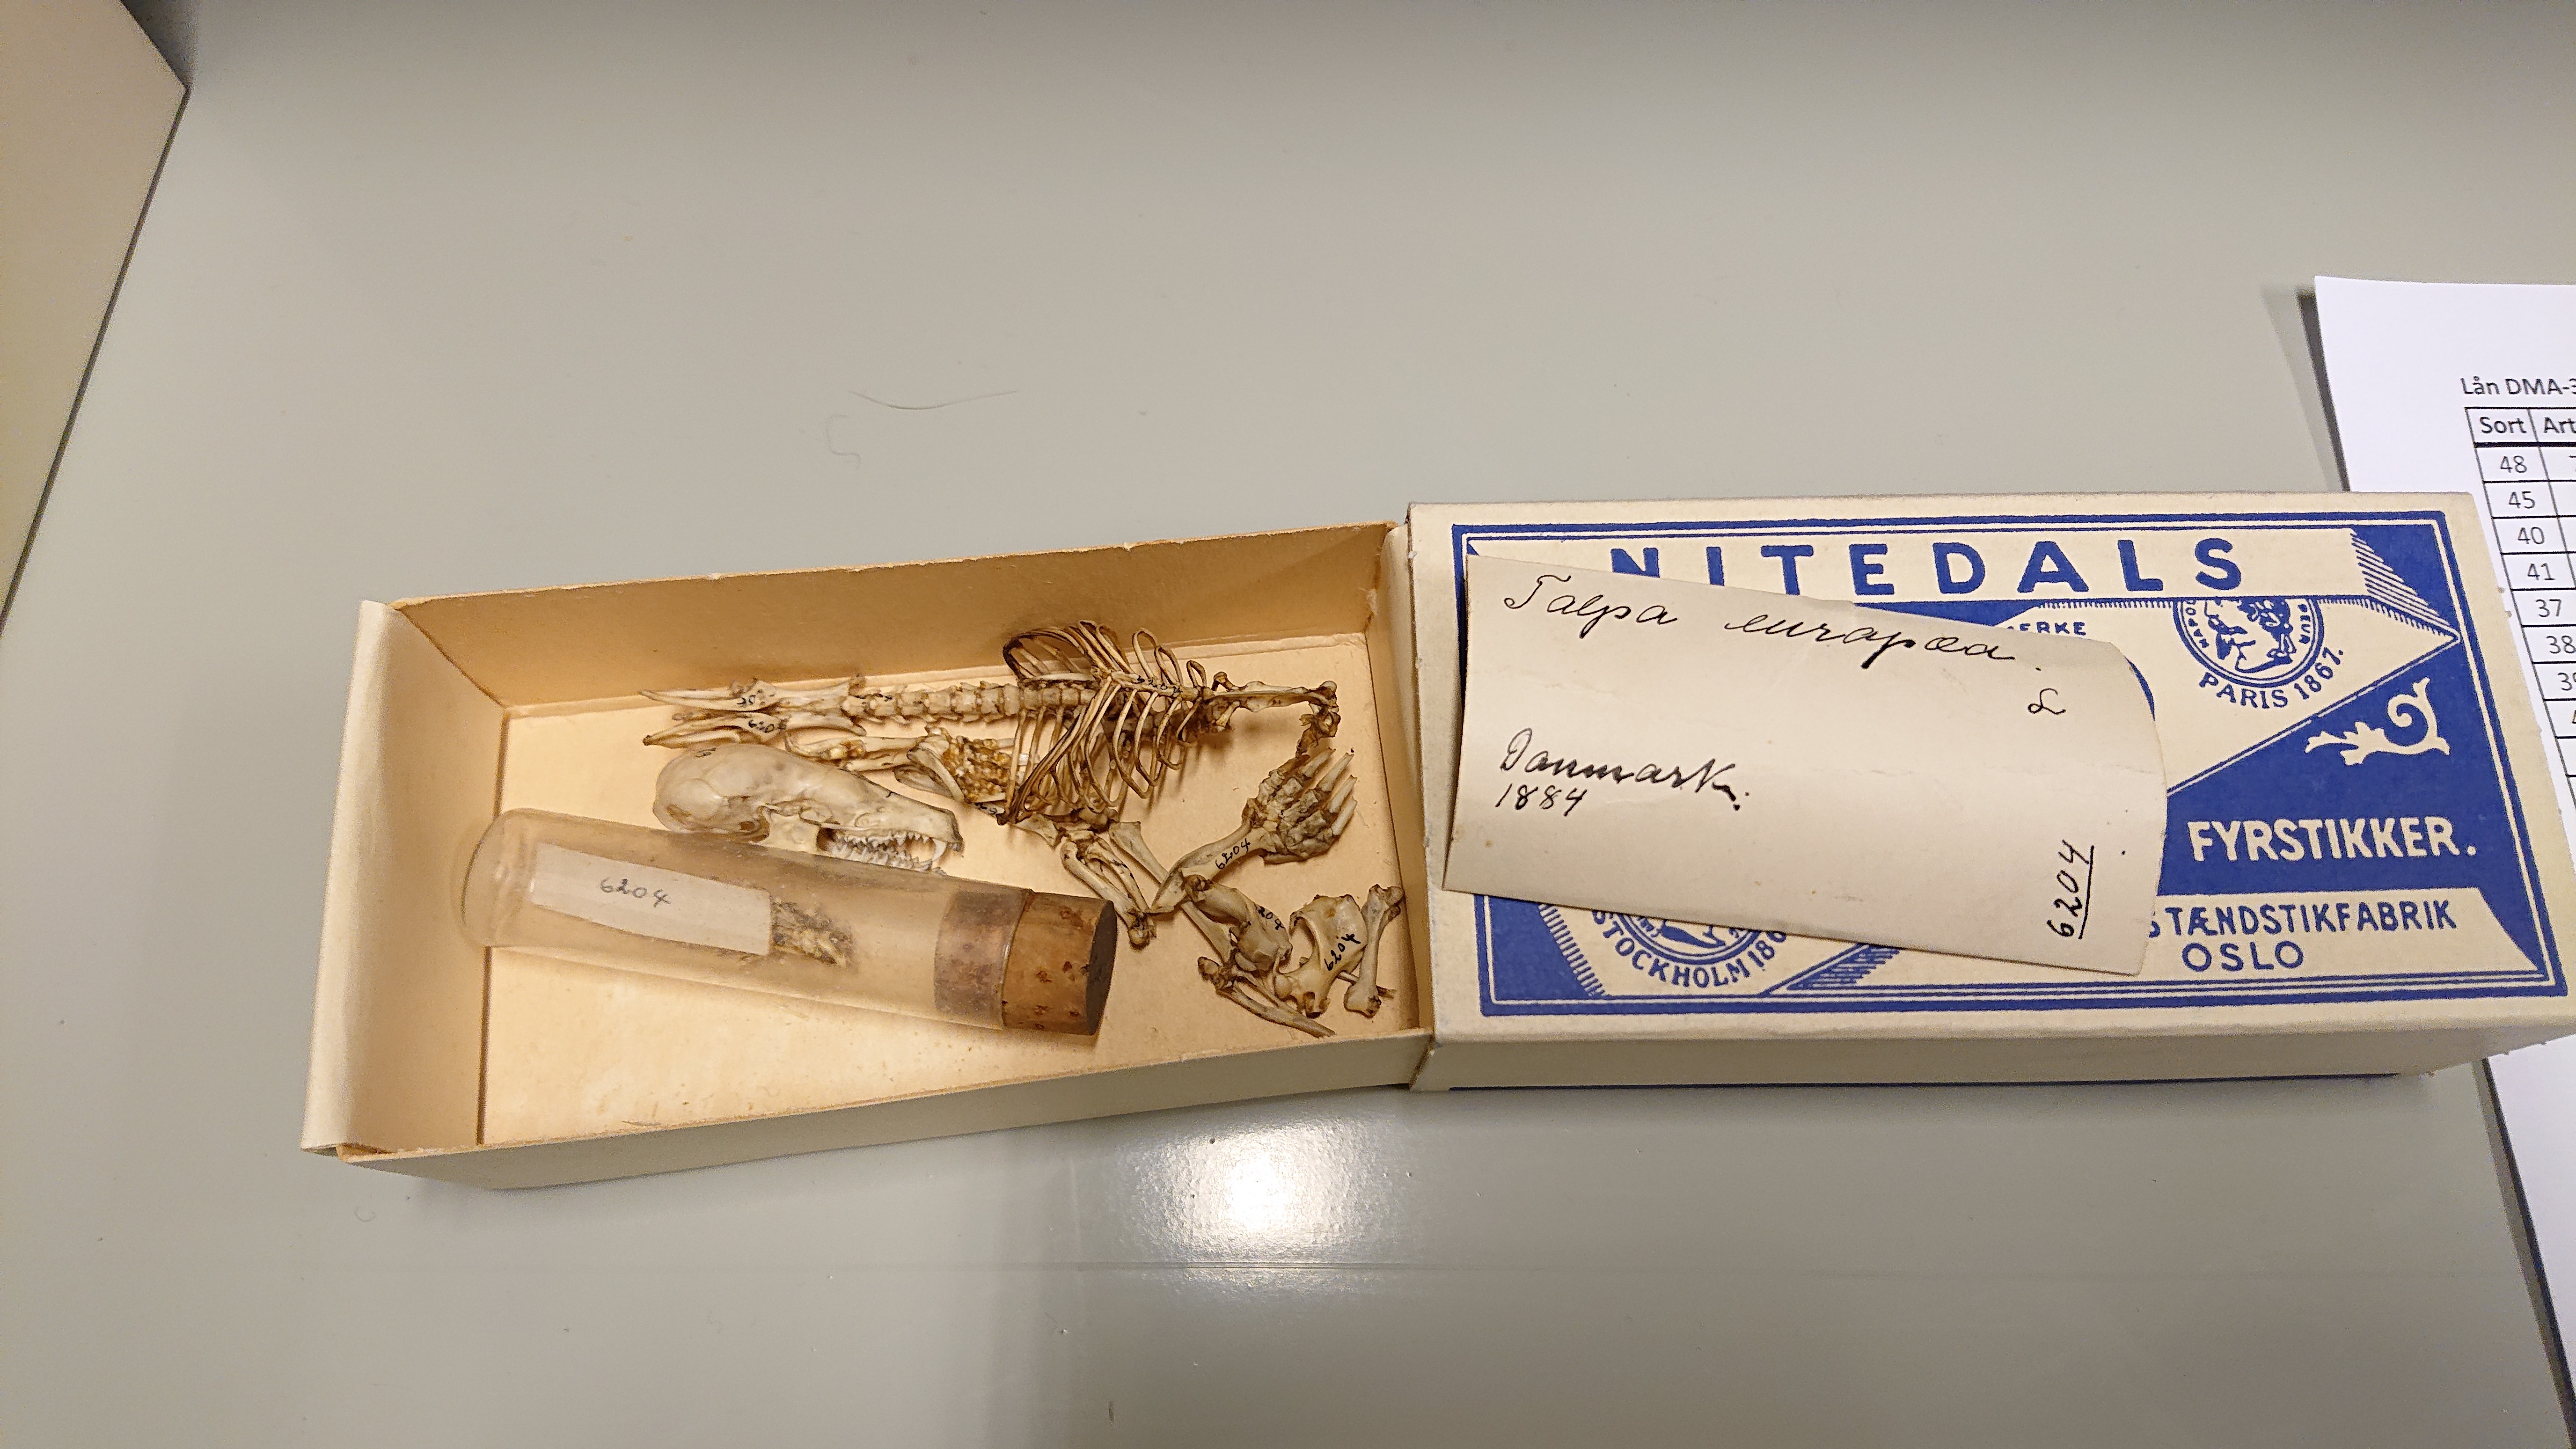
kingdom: Animalia
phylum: Chordata
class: Mammalia
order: Soricomorpha
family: Talpidae
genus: Talpa
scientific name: Talpa europaea
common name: European mole
